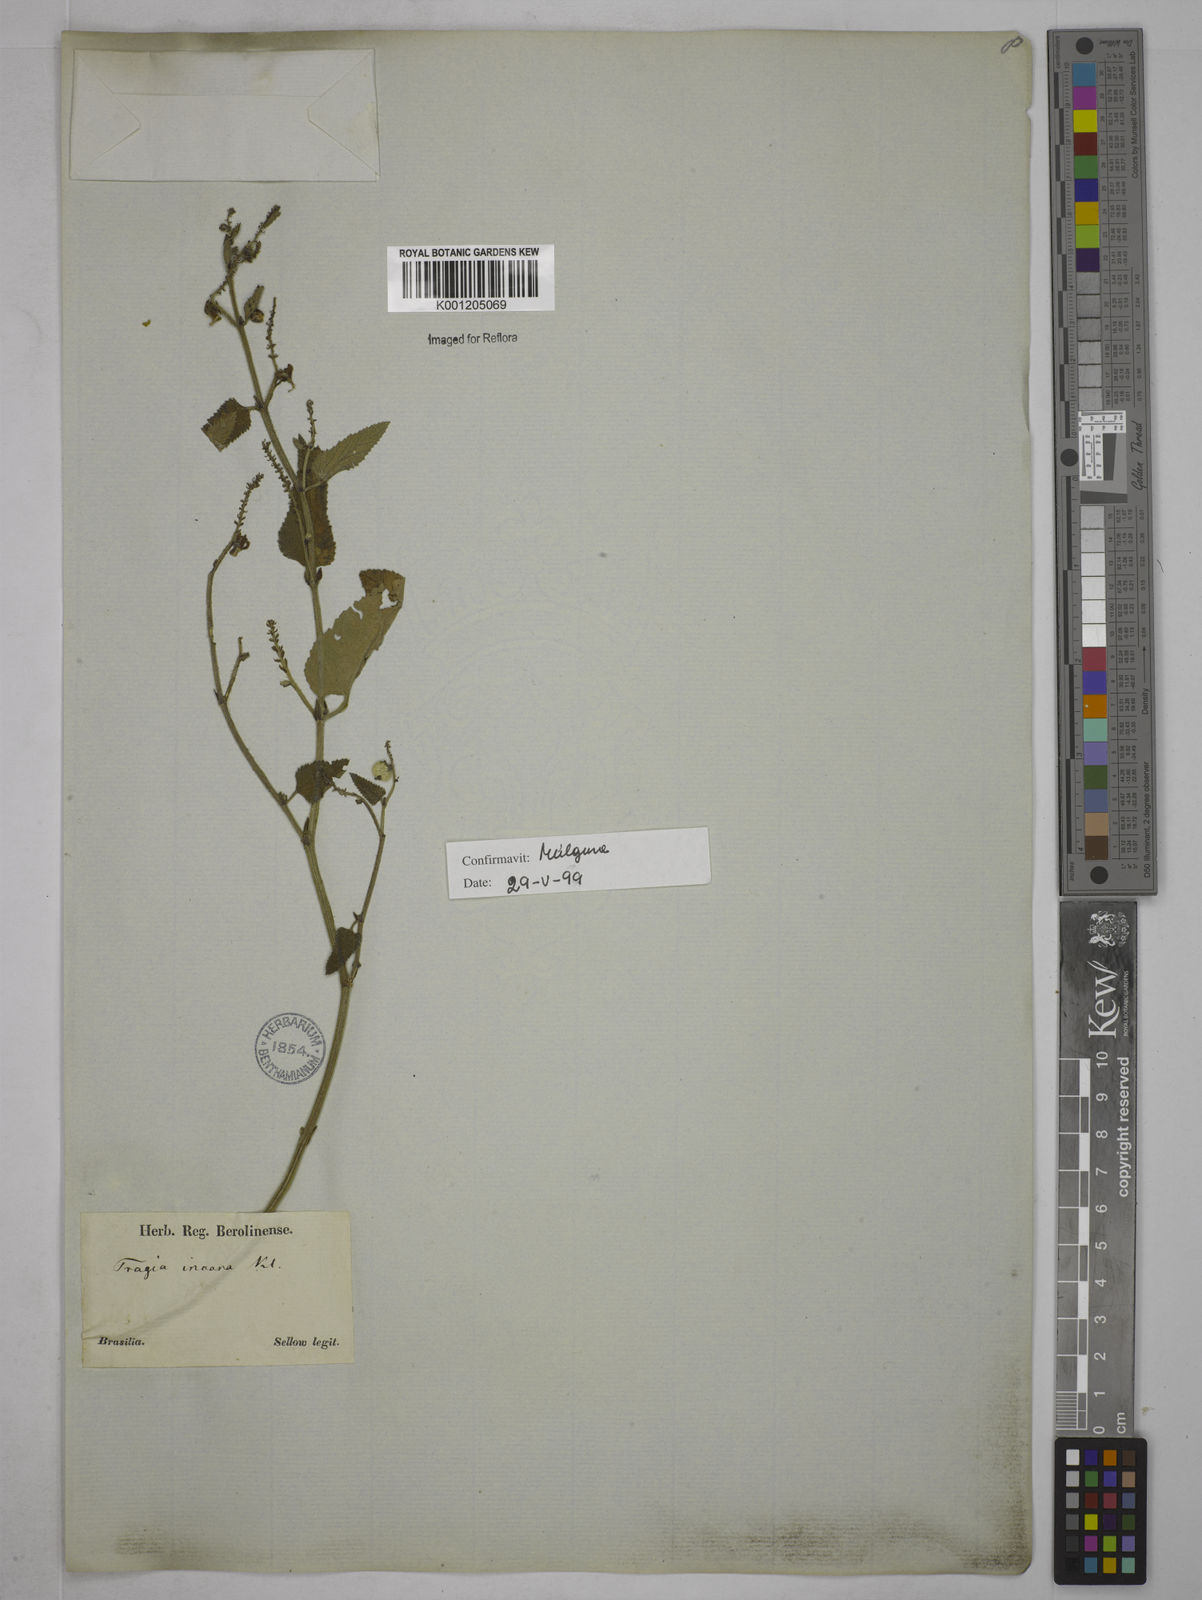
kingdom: Plantae
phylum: Tracheophyta
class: Magnoliopsida
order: Malpighiales
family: Euphorbiaceae
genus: Tragia
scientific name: Tragia
